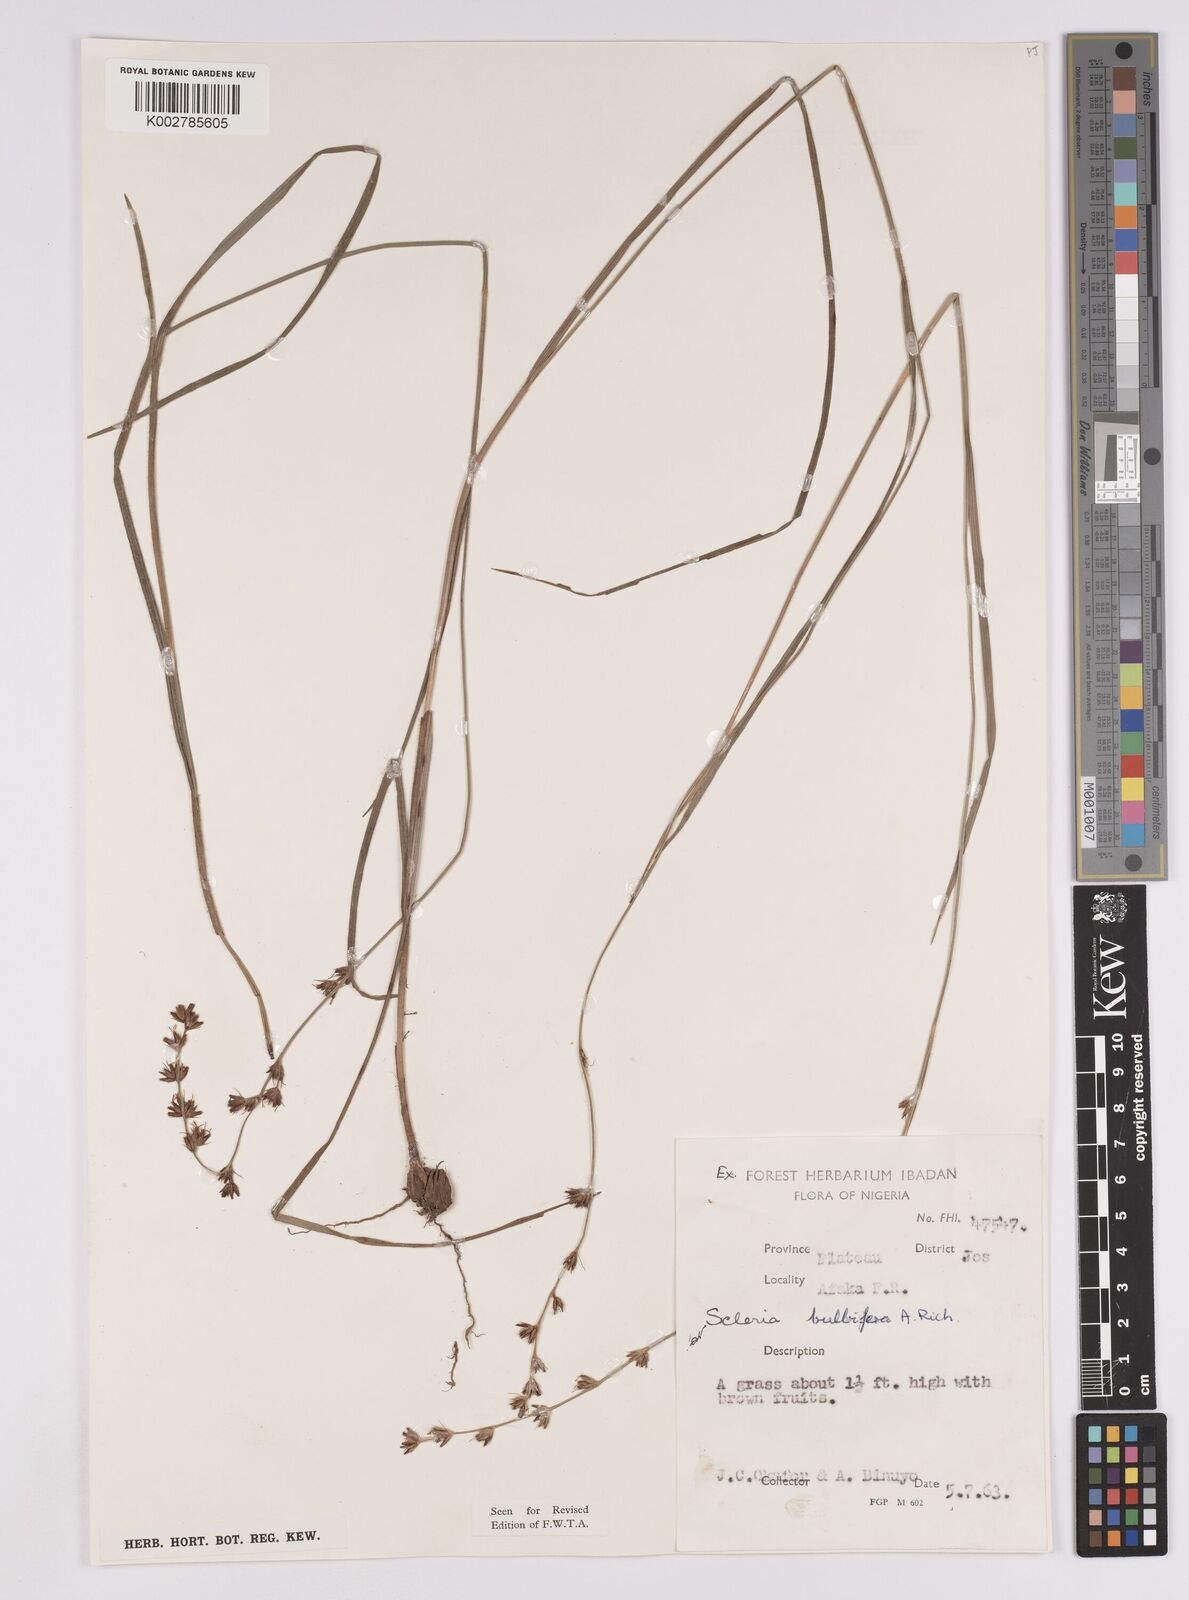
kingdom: Plantae
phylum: Tracheophyta
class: Liliopsida
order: Poales
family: Cyperaceae
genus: Scleria
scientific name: Scleria bulbifera
